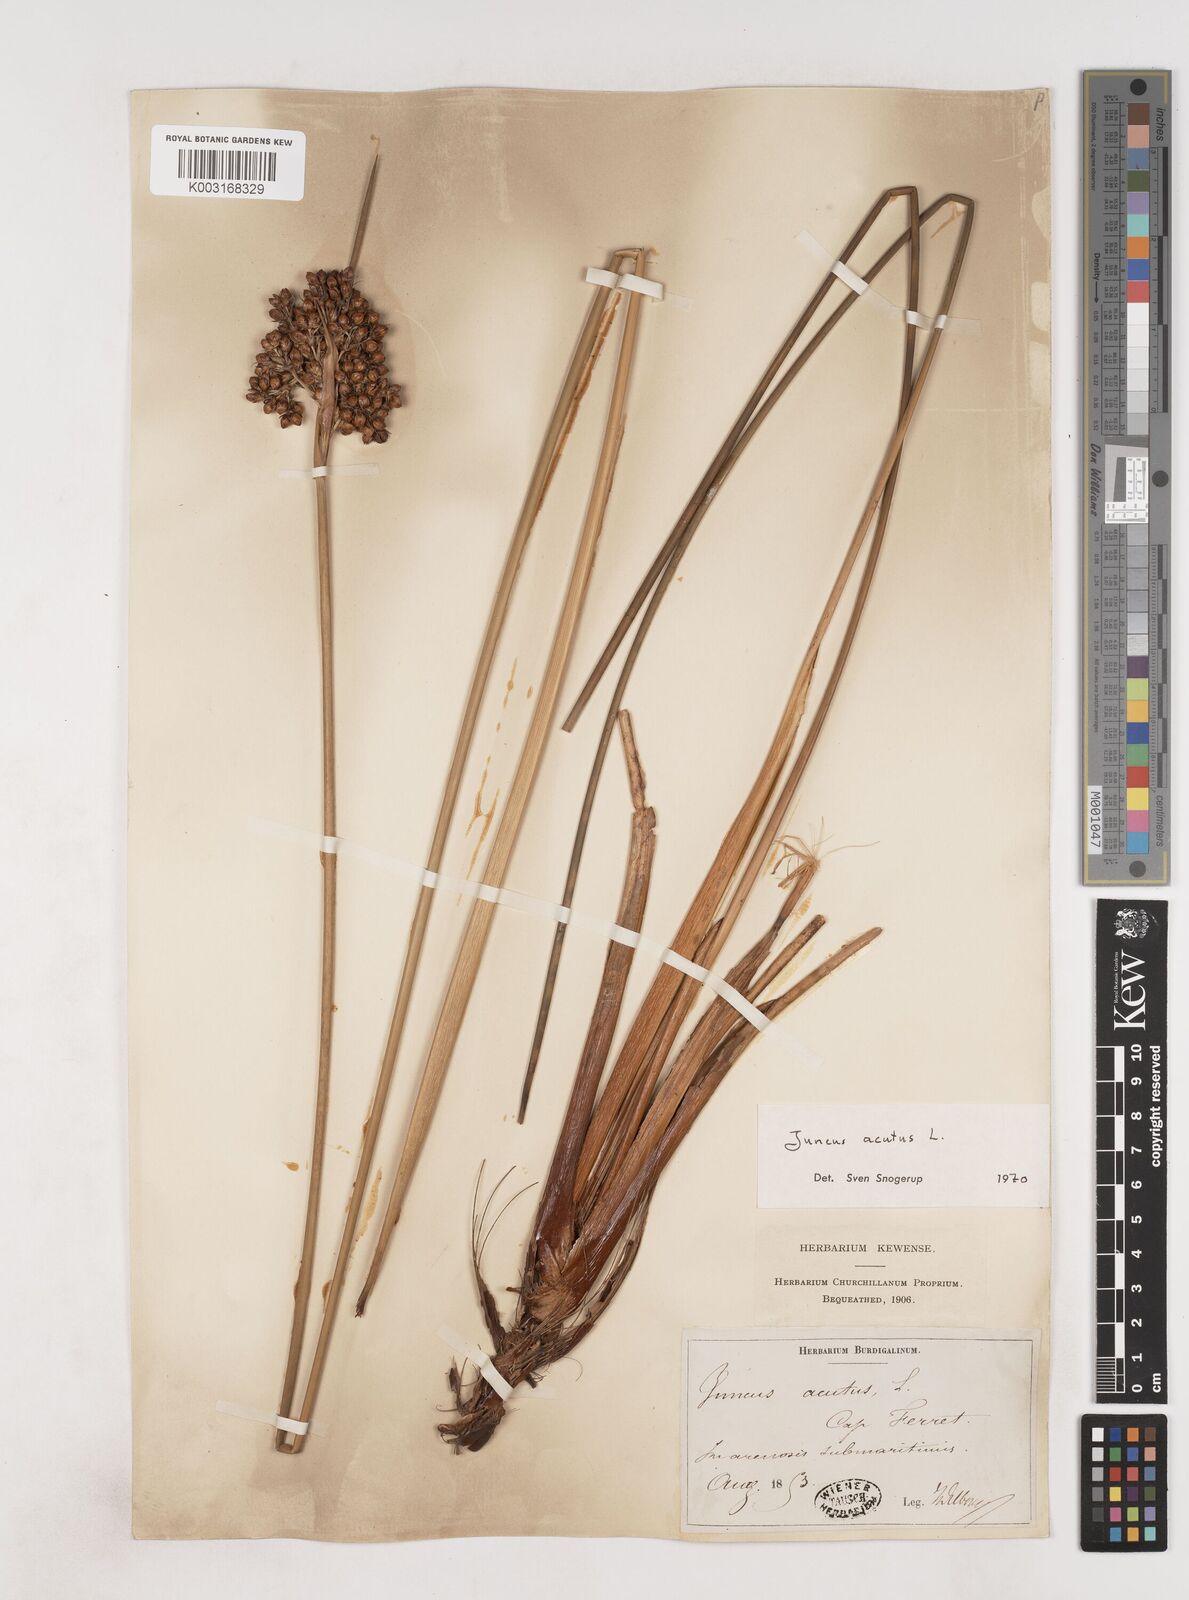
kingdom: Plantae
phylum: Tracheophyta
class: Liliopsida
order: Poales
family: Juncaceae
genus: Juncus
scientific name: Juncus acutus
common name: Sharp rush
